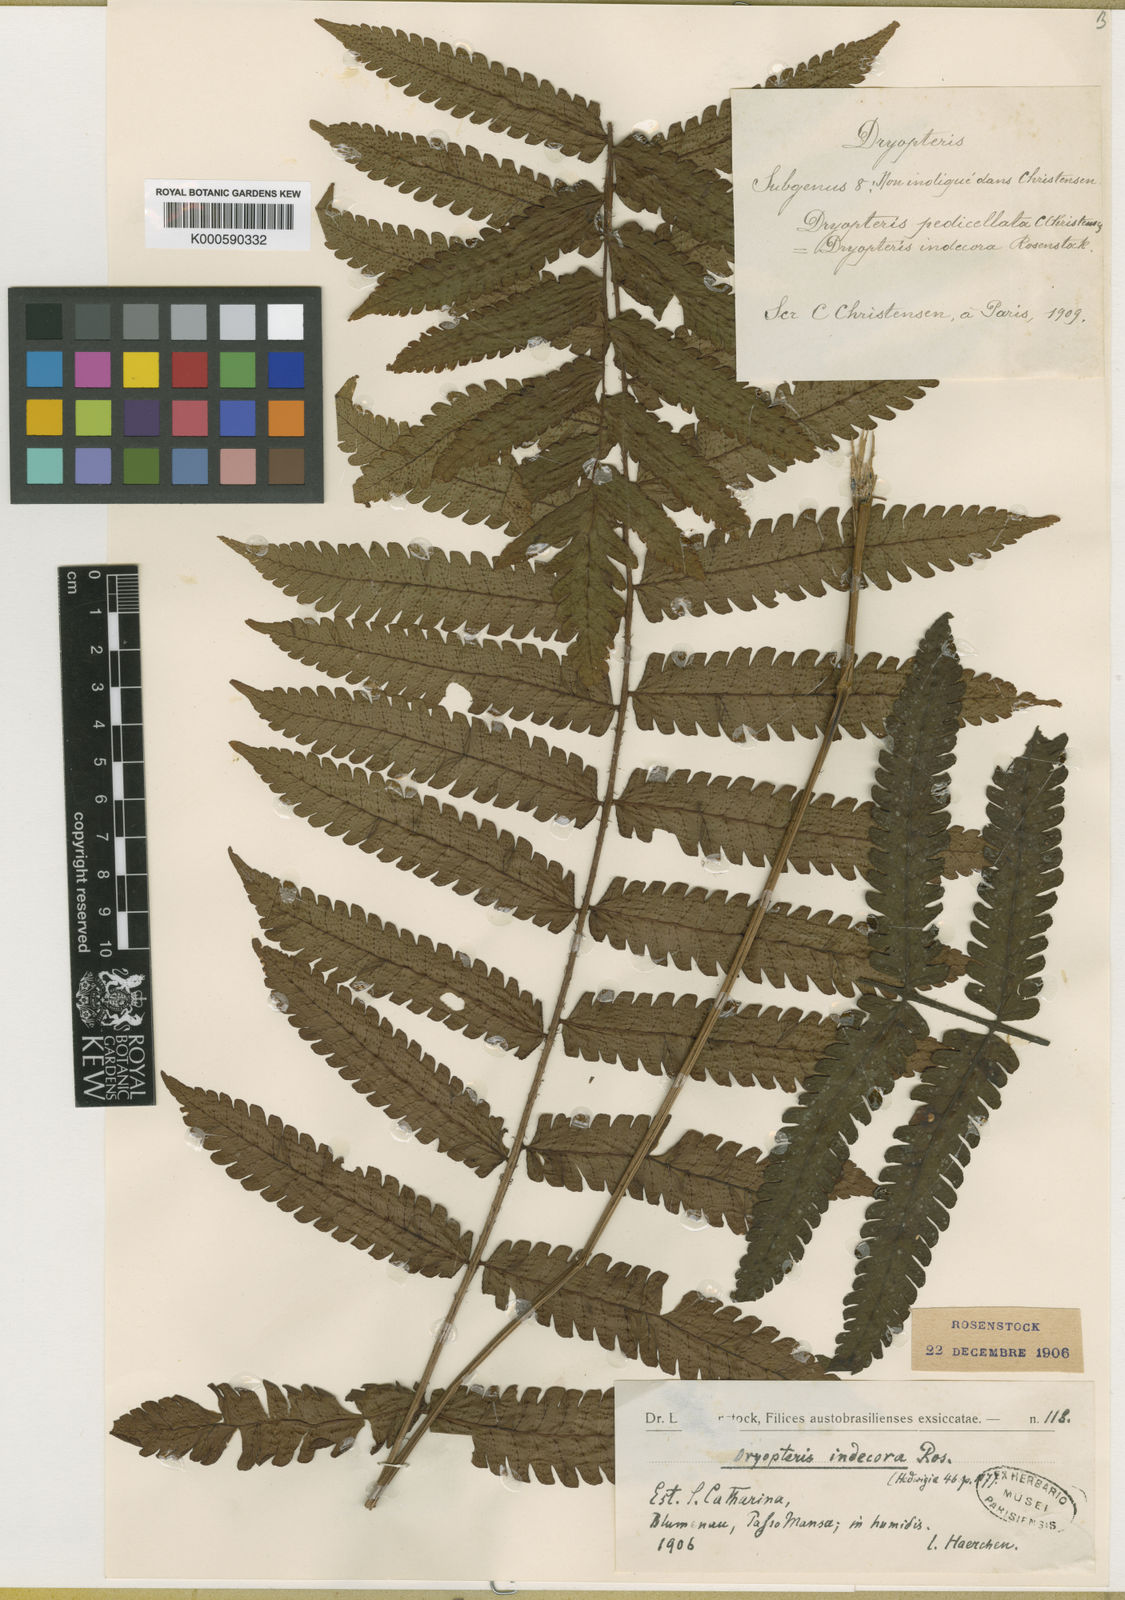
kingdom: Plantae
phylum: Tracheophyta
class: Polypodiopsida
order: Polypodiales
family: Dryopteridaceae
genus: Ctenitis
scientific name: Ctenitis nervata
